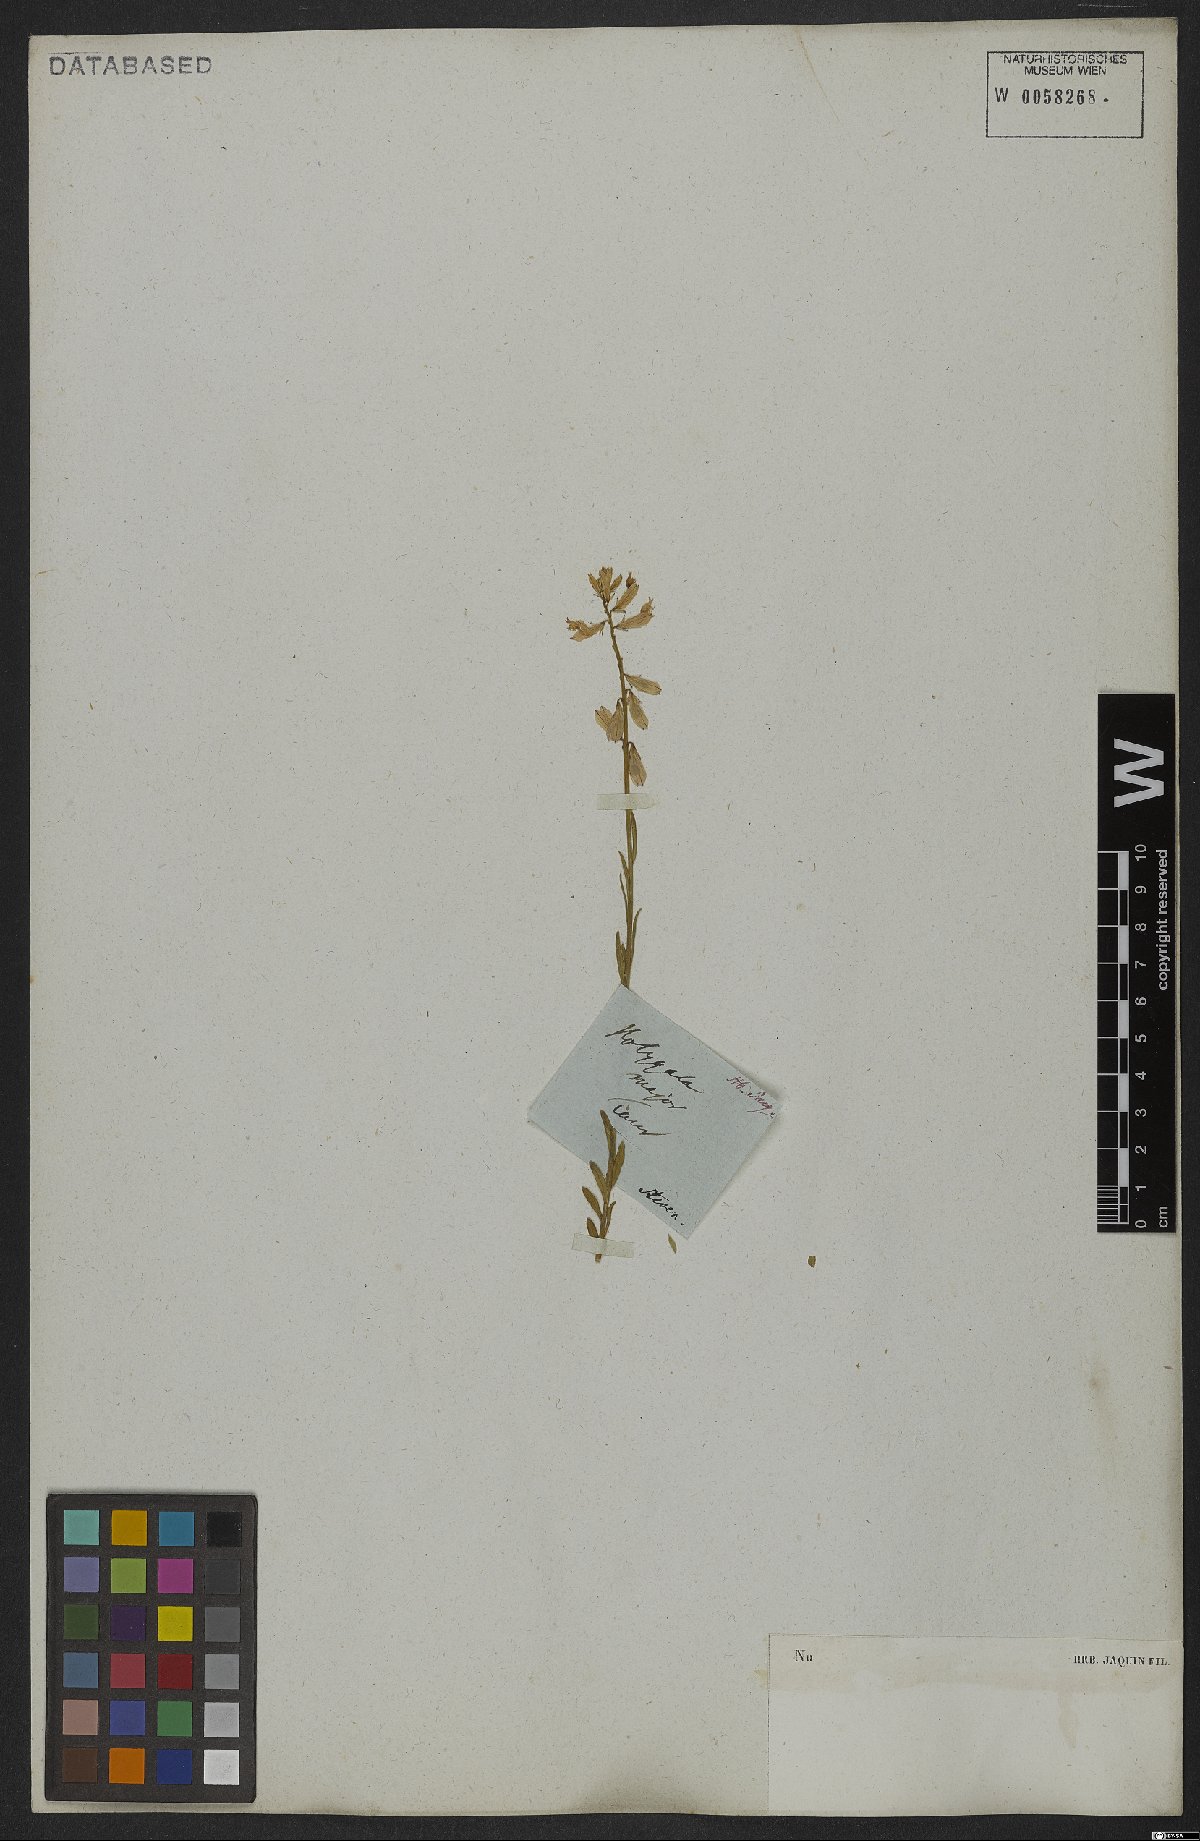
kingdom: Plantae
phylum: Tracheophyta
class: Magnoliopsida
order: Fabales
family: Polygalaceae
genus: Polygala
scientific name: Polygala major
